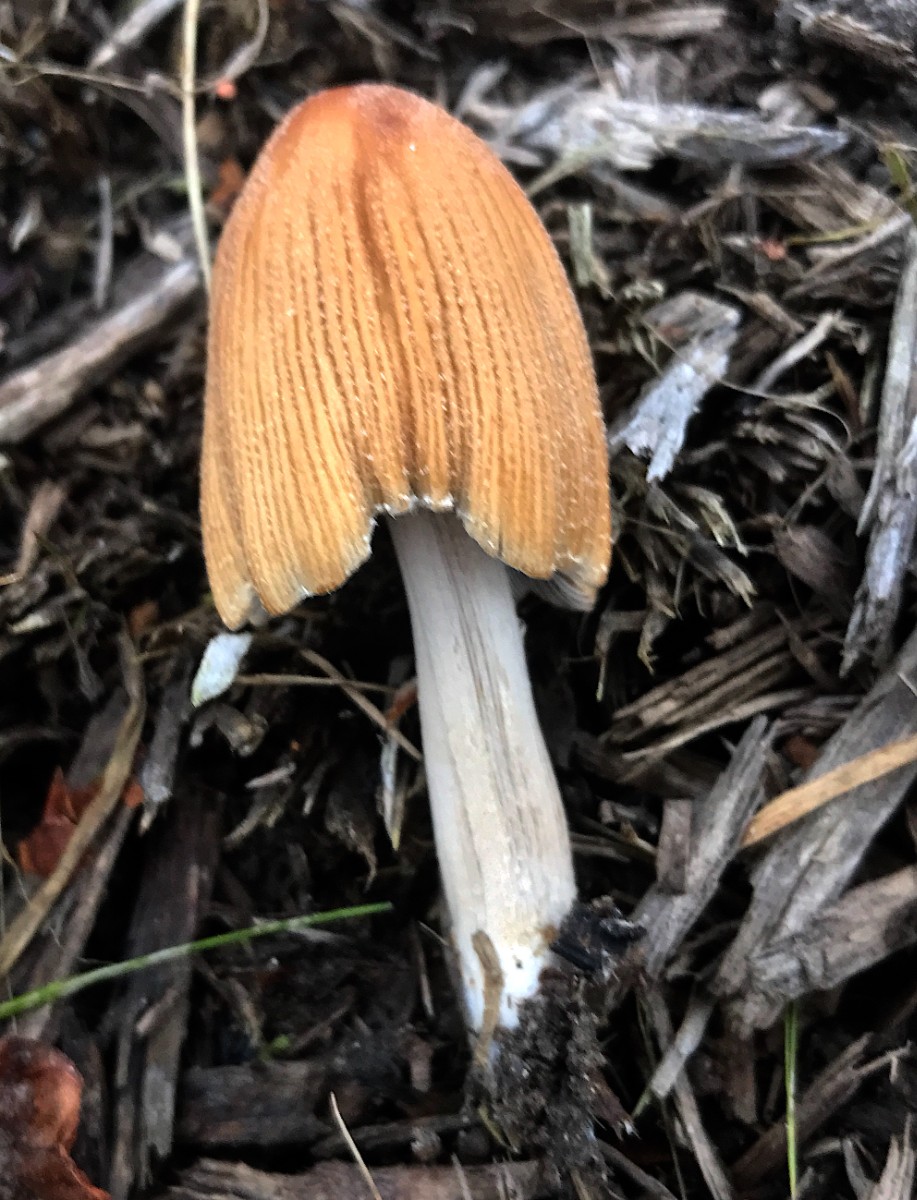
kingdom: Fungi
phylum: Basidiomycota
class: Agaricomycetes
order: Agaricales
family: Psathyrellaceae
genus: Coprinellus
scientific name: Coprinellus micaceus
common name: glimmer-blækhat
